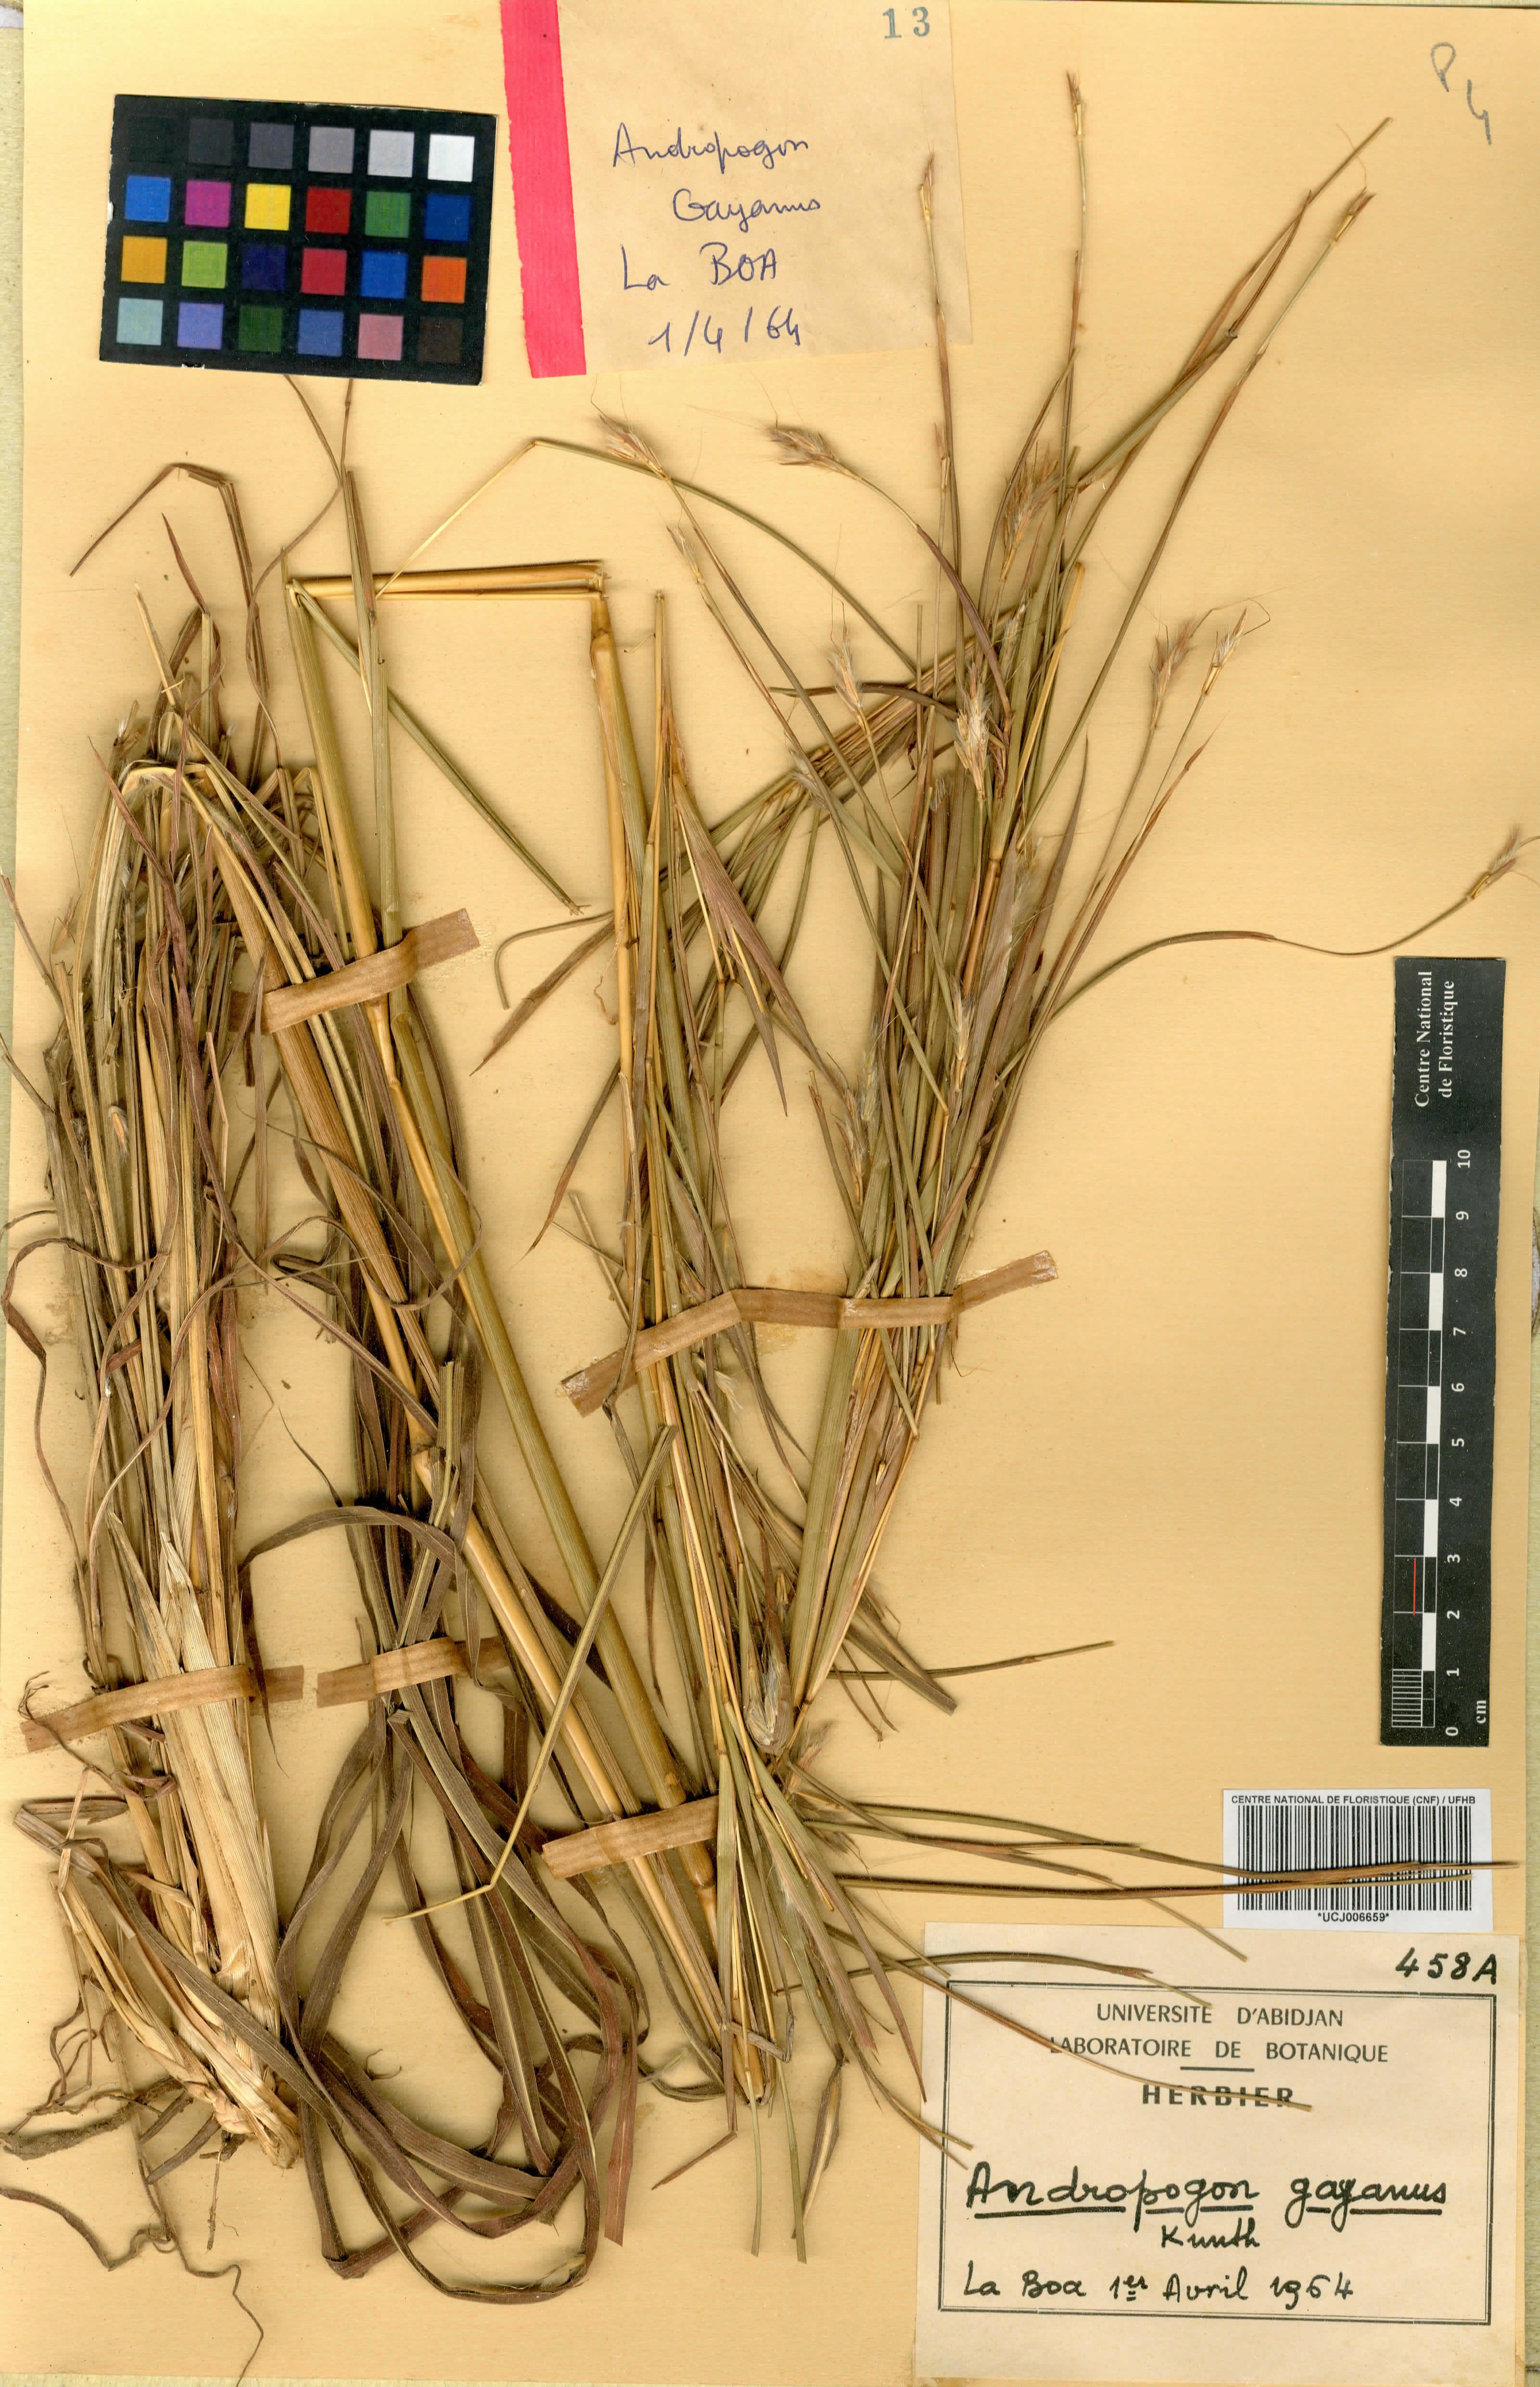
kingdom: Plantae
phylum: Tracheophyta
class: Liliopsida
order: Poales
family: Poaceae
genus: Andropogon
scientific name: Andropogon gayanus
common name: Tambuki grass
